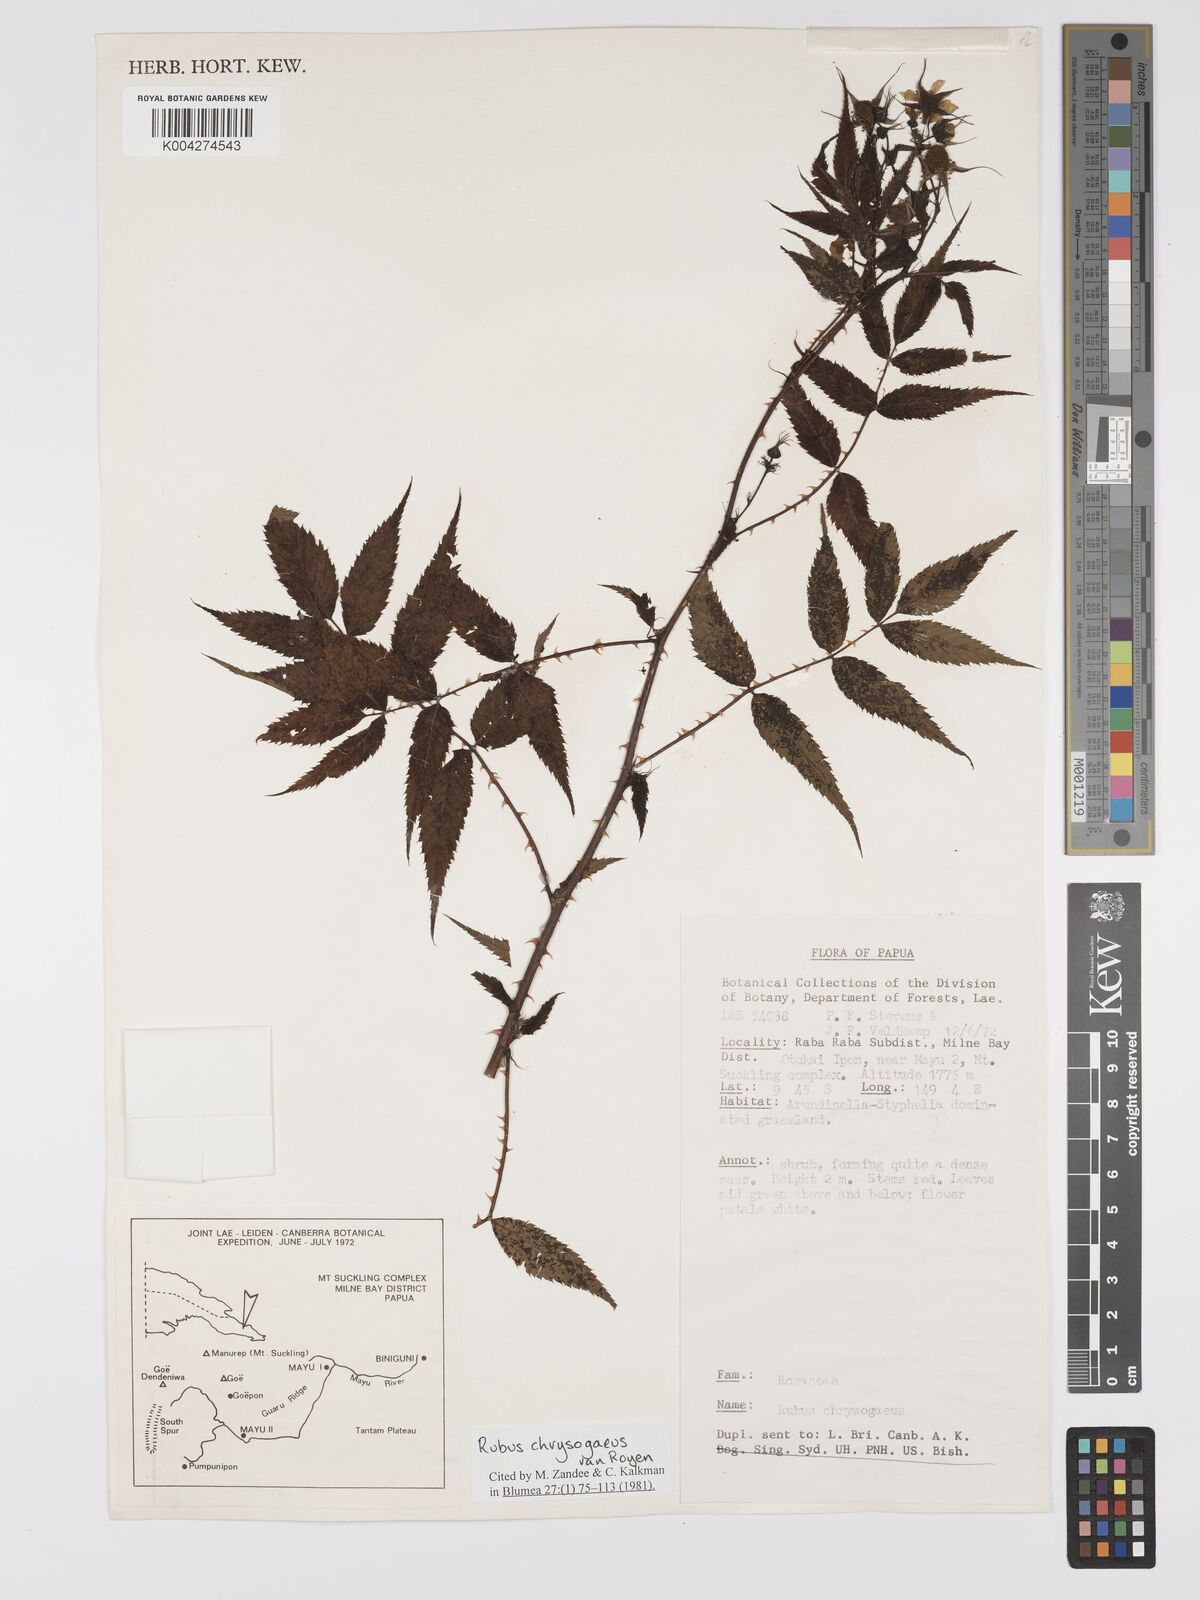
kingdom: Plantae
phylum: Tracheophyta
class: Magnoliopsida
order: Rosales
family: Rosaceae
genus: Rubus
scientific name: Rubus chrysogaeus
